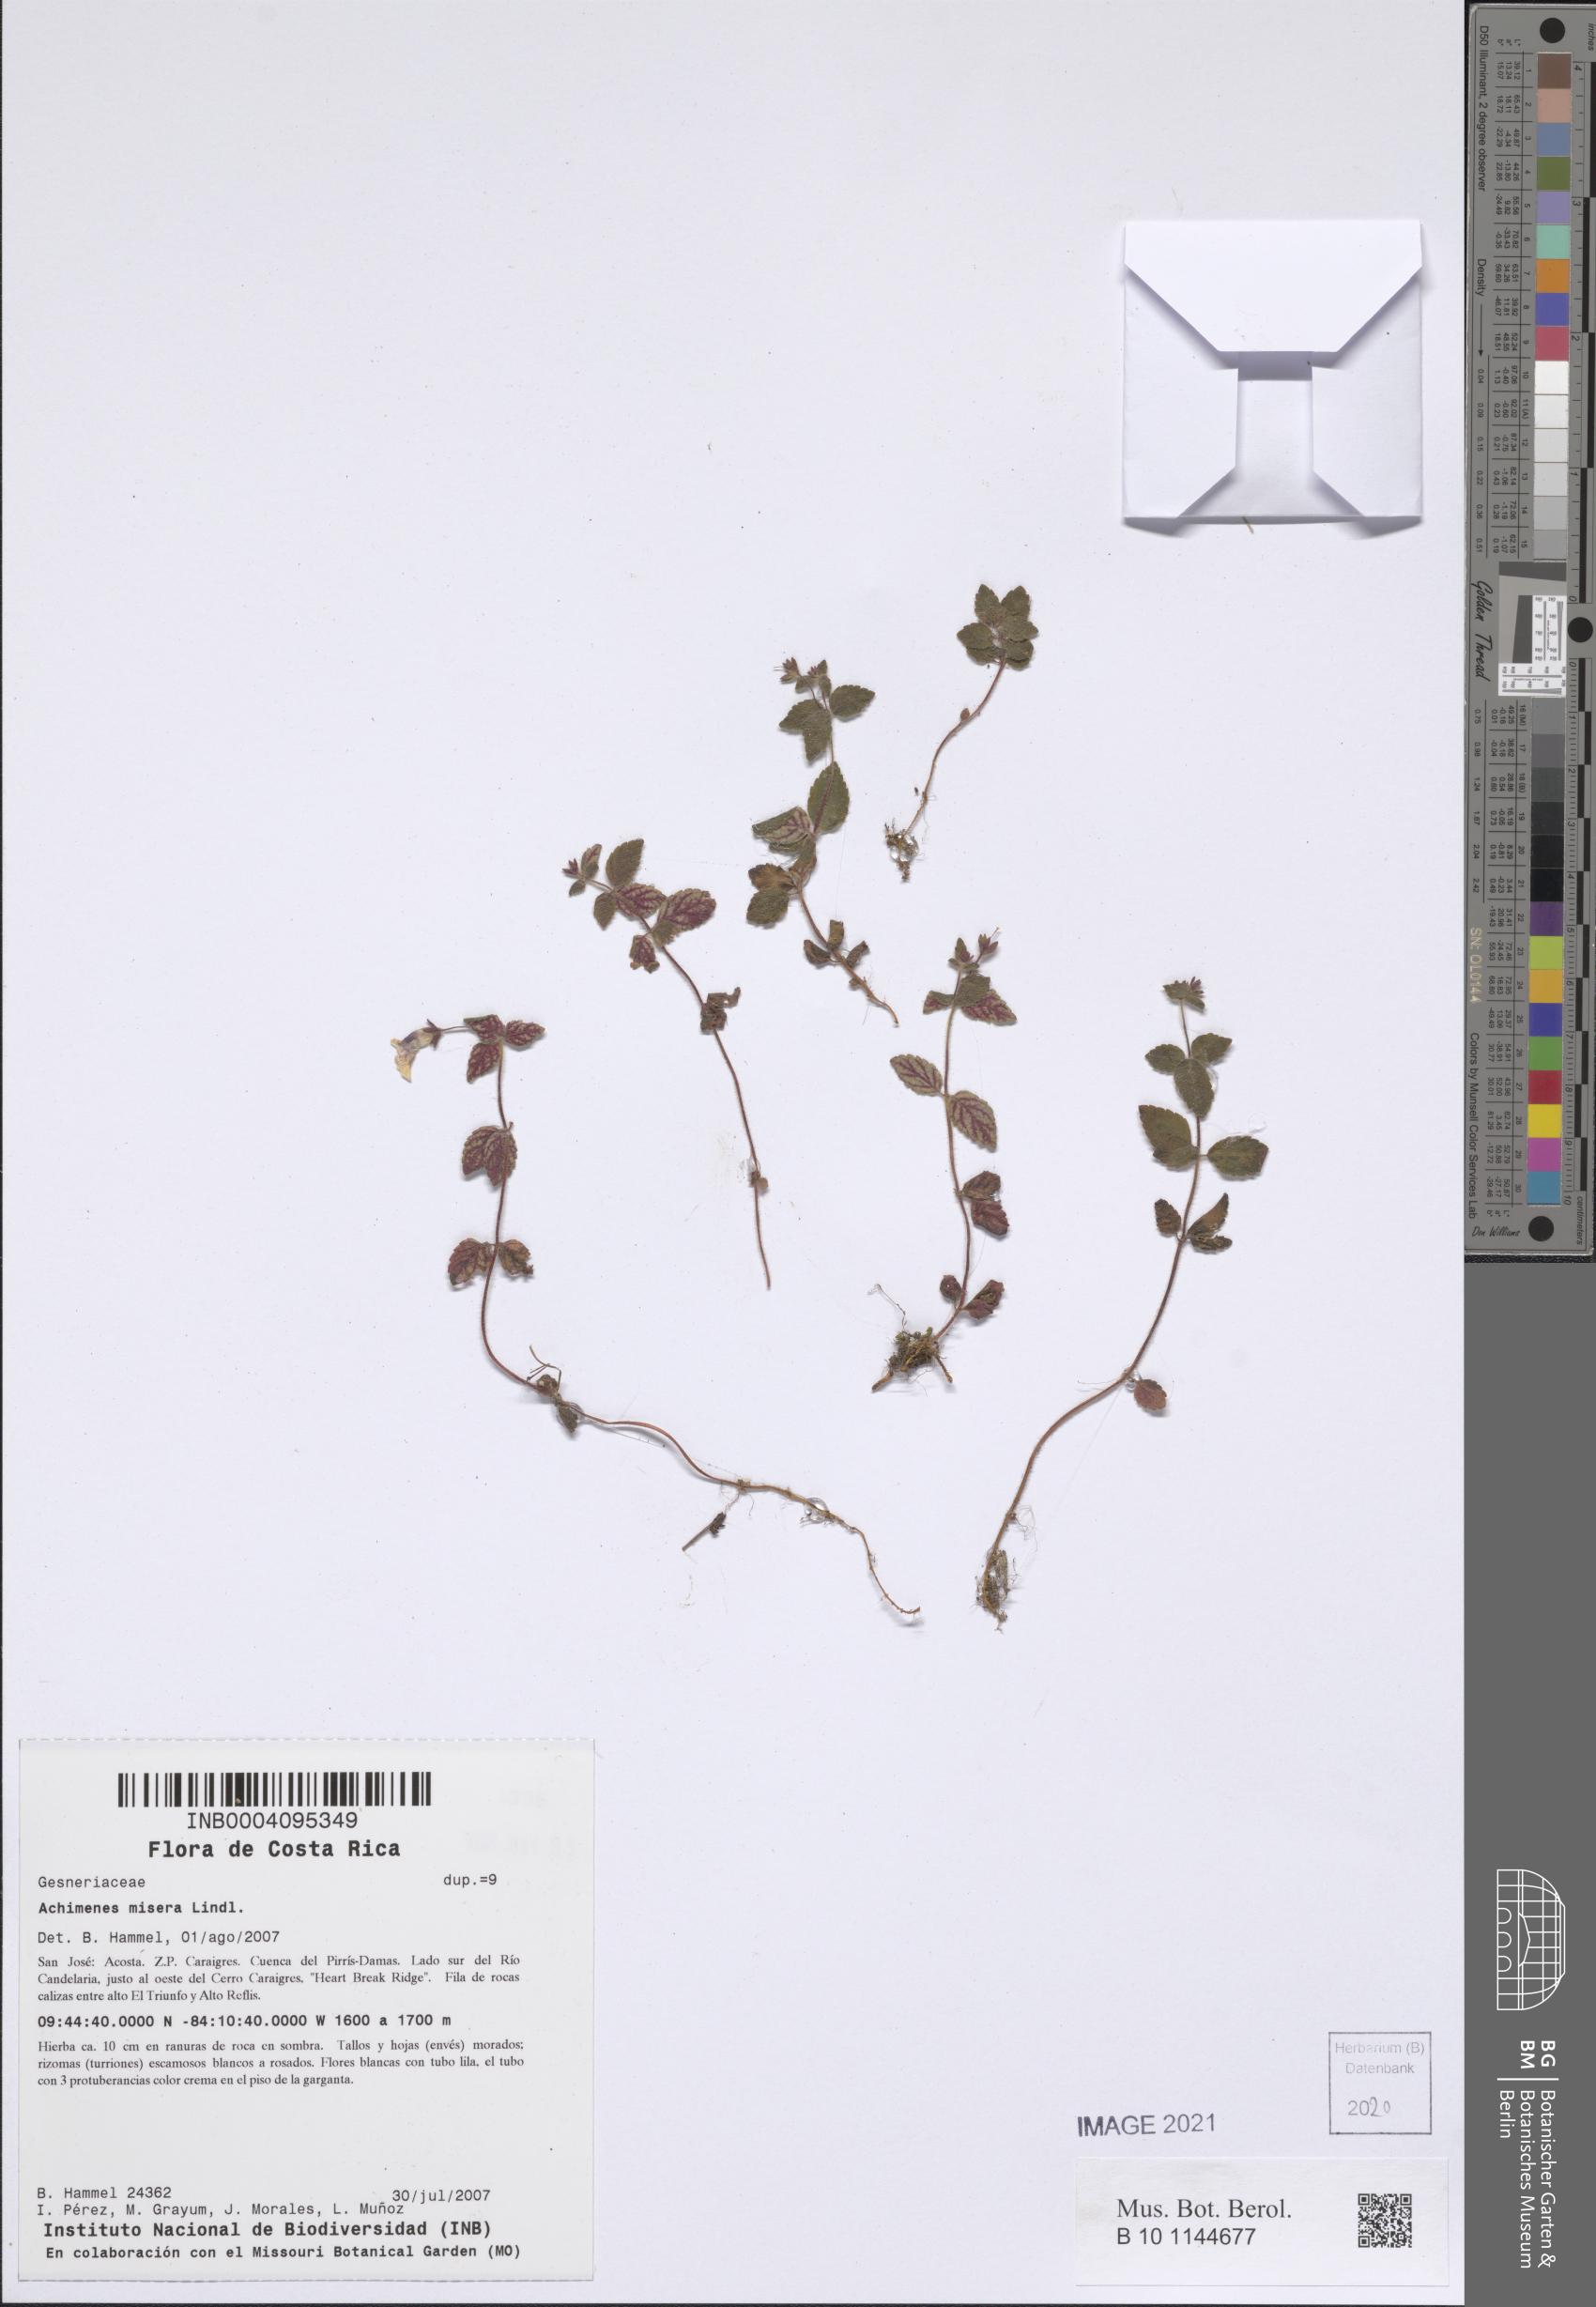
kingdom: Plantae
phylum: Tracheophyta
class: Magnoliopsida
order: Lamiales
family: Gesneriaceae
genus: Achimenes
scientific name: Achimenes misera
